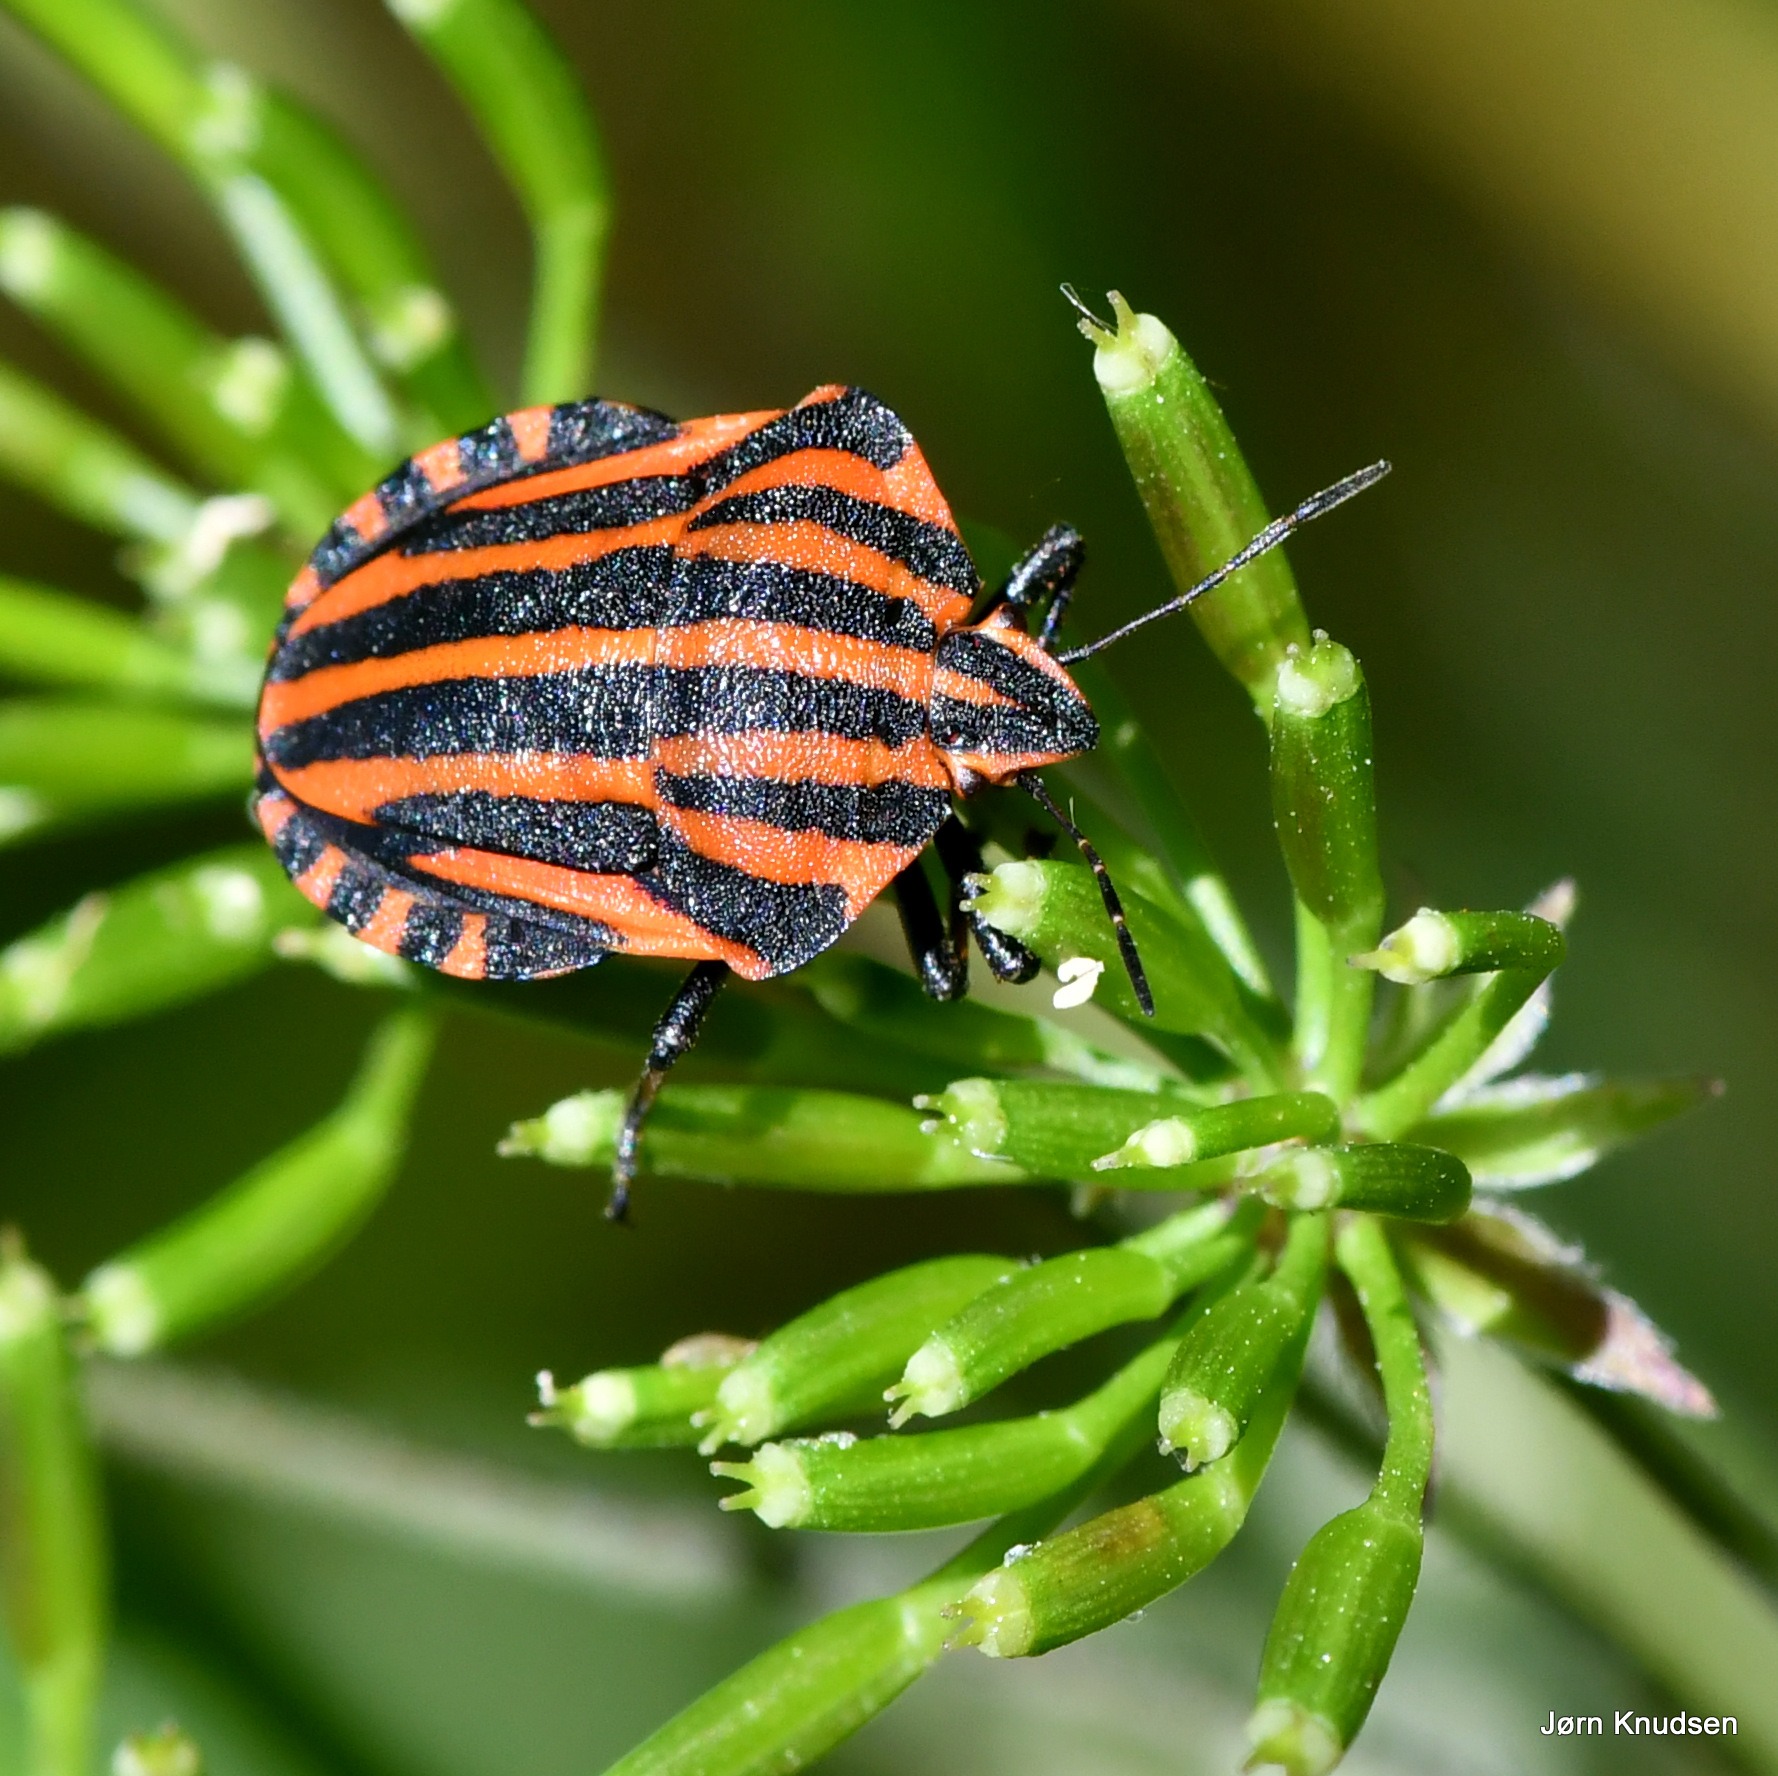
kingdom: Animalia
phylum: Arthropoda
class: Insecta
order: Hemiptera
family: Pentatomidae
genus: Graphosoma
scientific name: Graphosoma italicum
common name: Stribetæge
